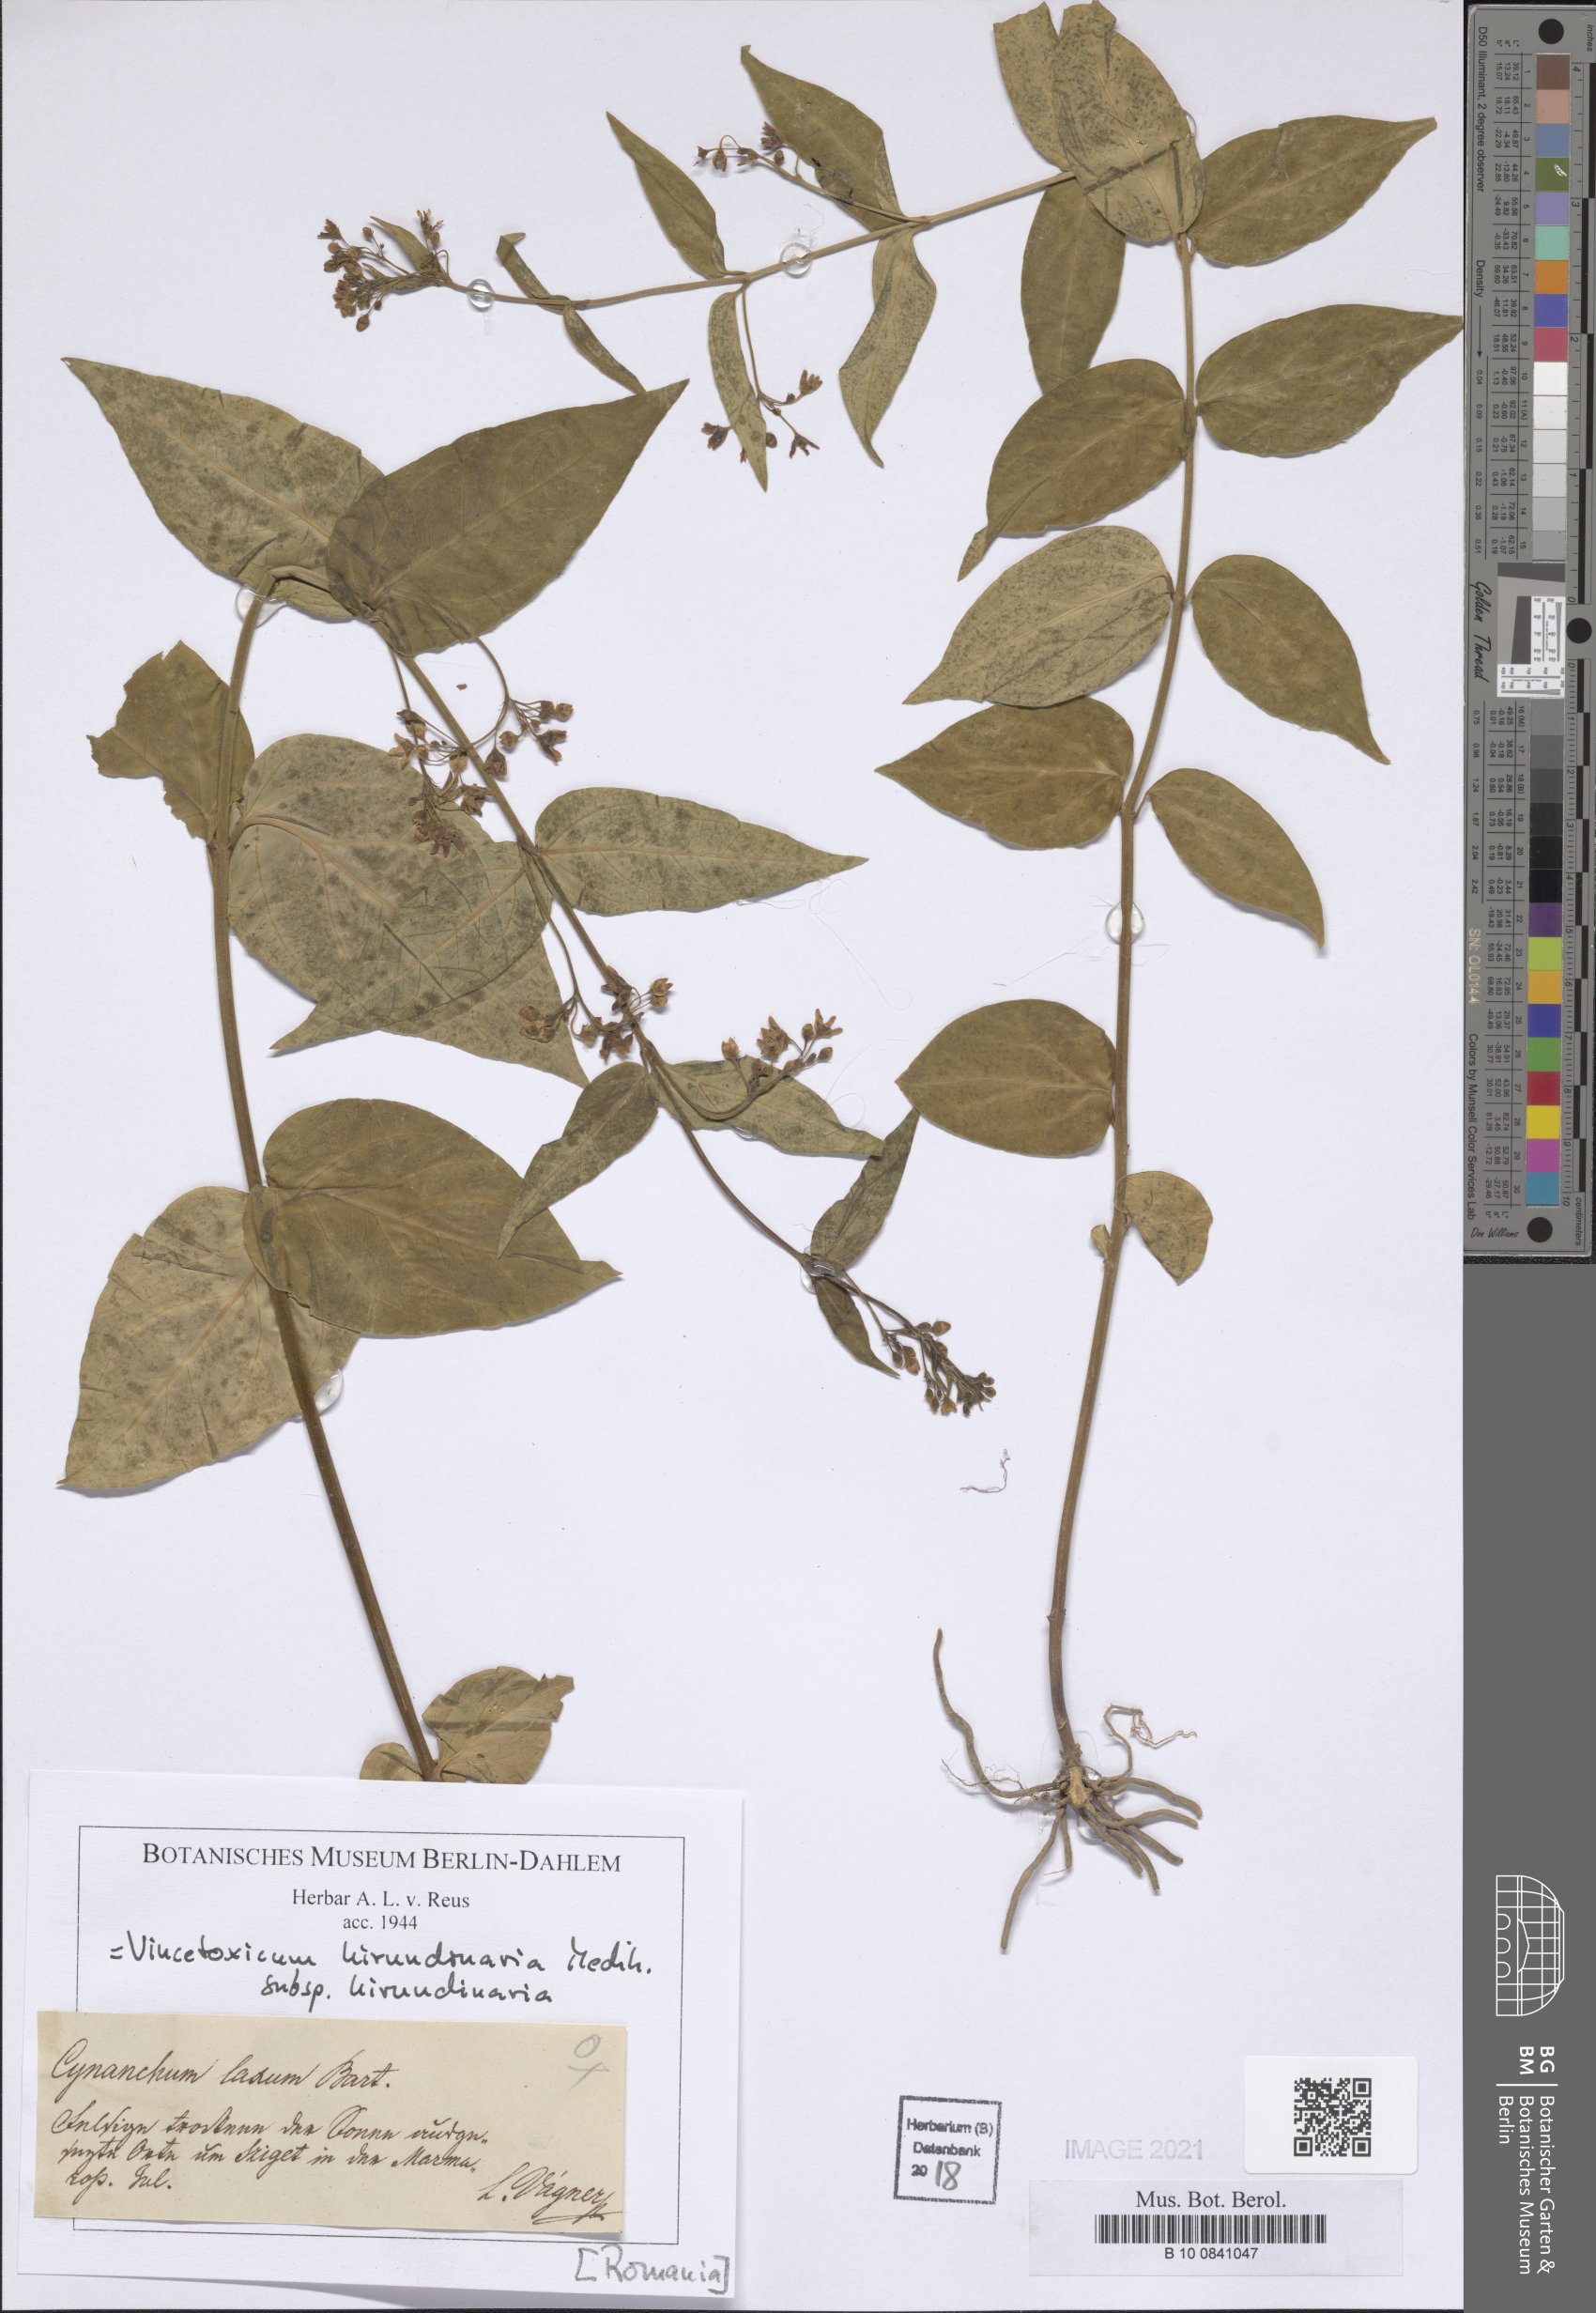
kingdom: Plantae
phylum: Tracheophyta
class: Magnoliopsida
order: Gentianales
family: Apocynaceae
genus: Vincetoxicum
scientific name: Vincetoxicum hirundinaria
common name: White swallowwort
